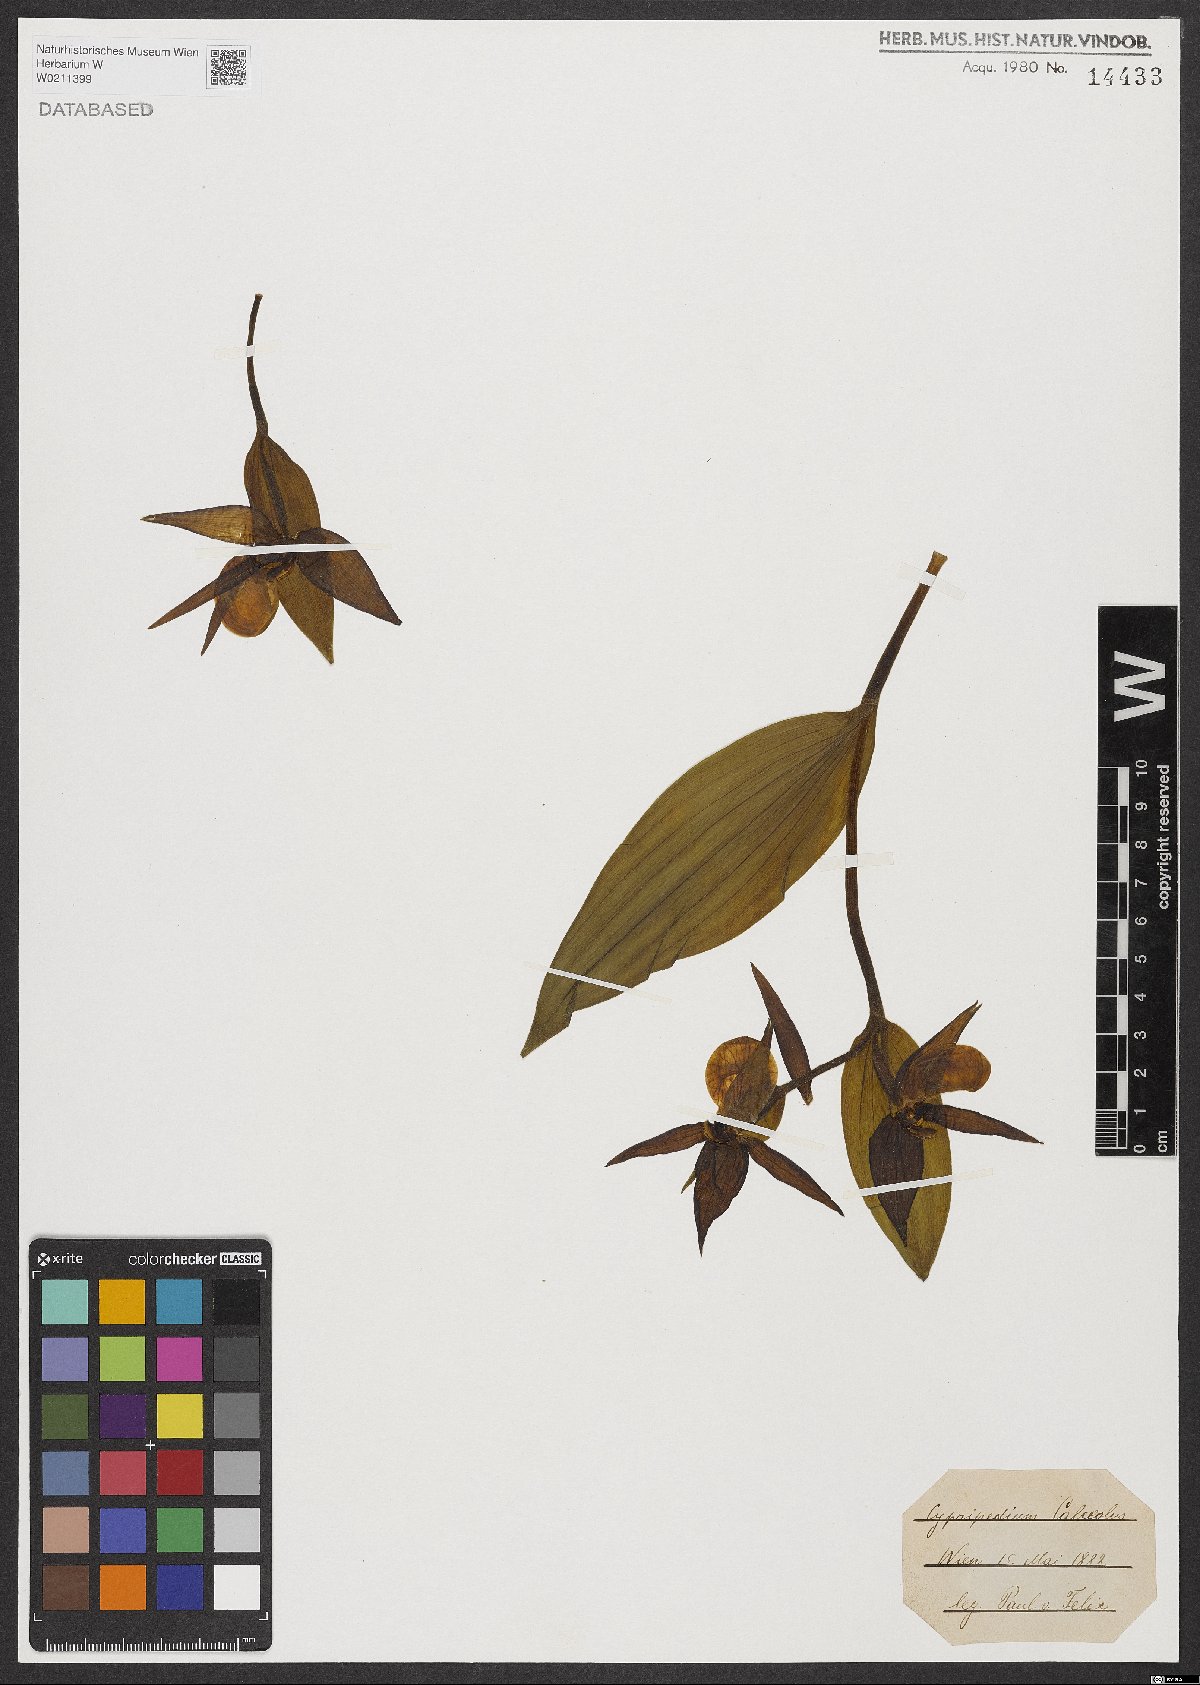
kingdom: Plantae
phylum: Tracheophyta
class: Liliopsida
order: Asparagales
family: Orchidaceae
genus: Cypripedium
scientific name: Cypripedium calceolus
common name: Lady's-slipper
